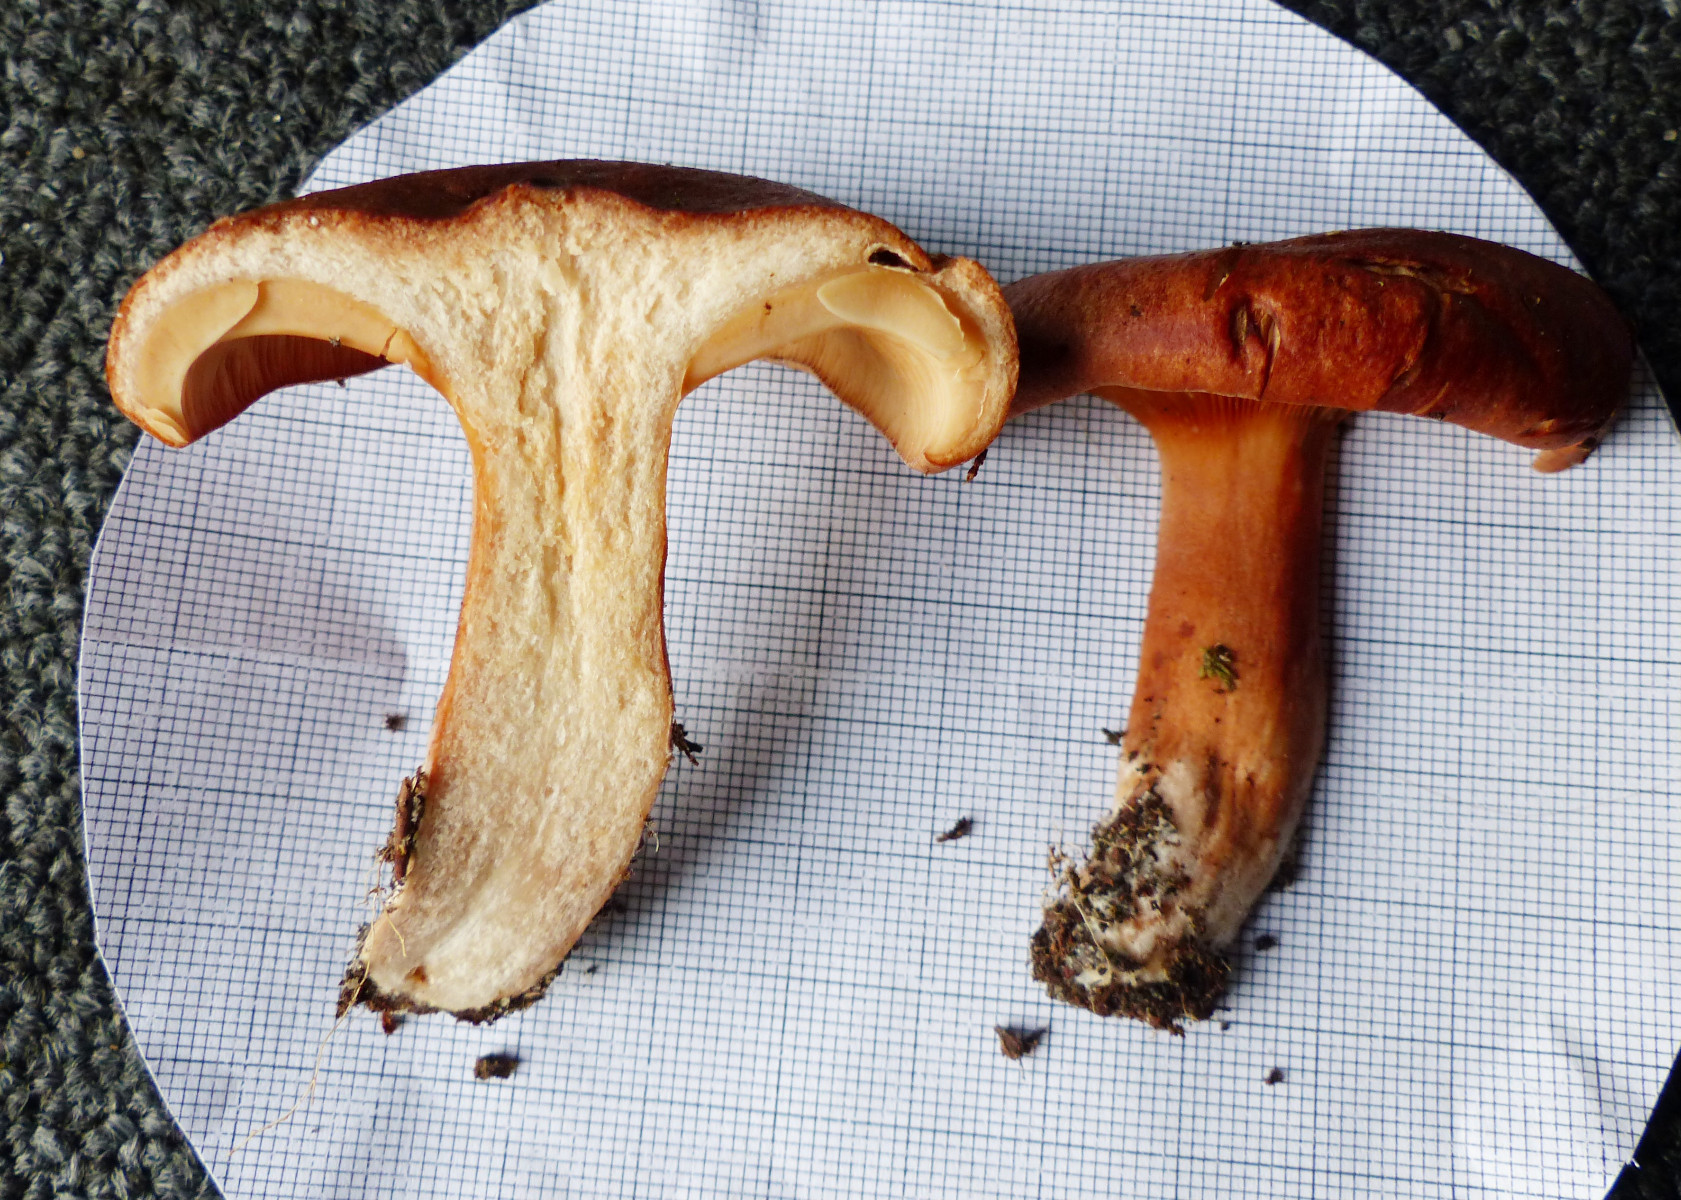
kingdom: Fungi
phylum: Basidiomycota
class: Agaricomycetes
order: Russulales
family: Russulaceae
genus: Lactarius
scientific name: Lactarius rufus
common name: rødbrun mælkehat
